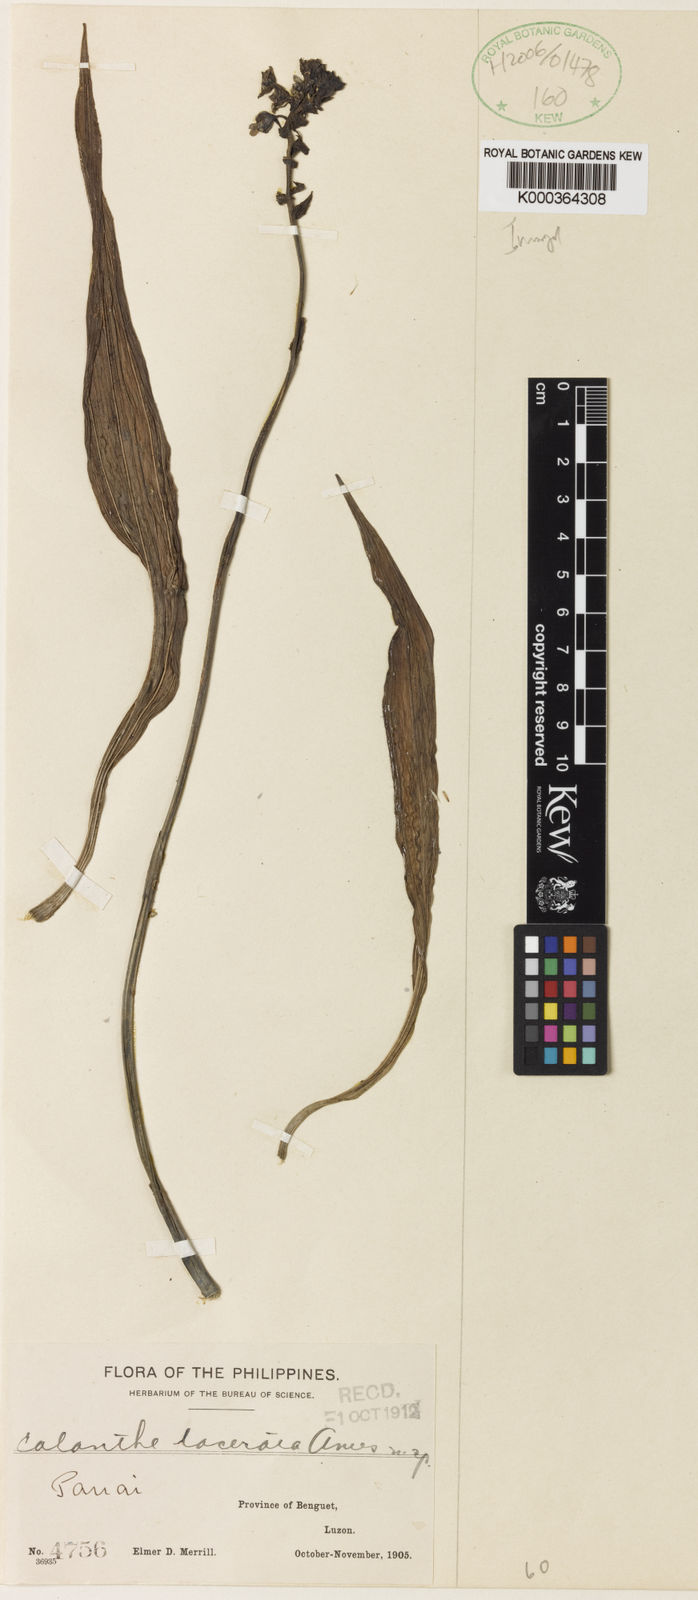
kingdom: Plantae
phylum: Tracheophyta
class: Liliopsida
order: Asparagales
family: Orchidaceae
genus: Calanthe
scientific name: Calanthe lacerata
